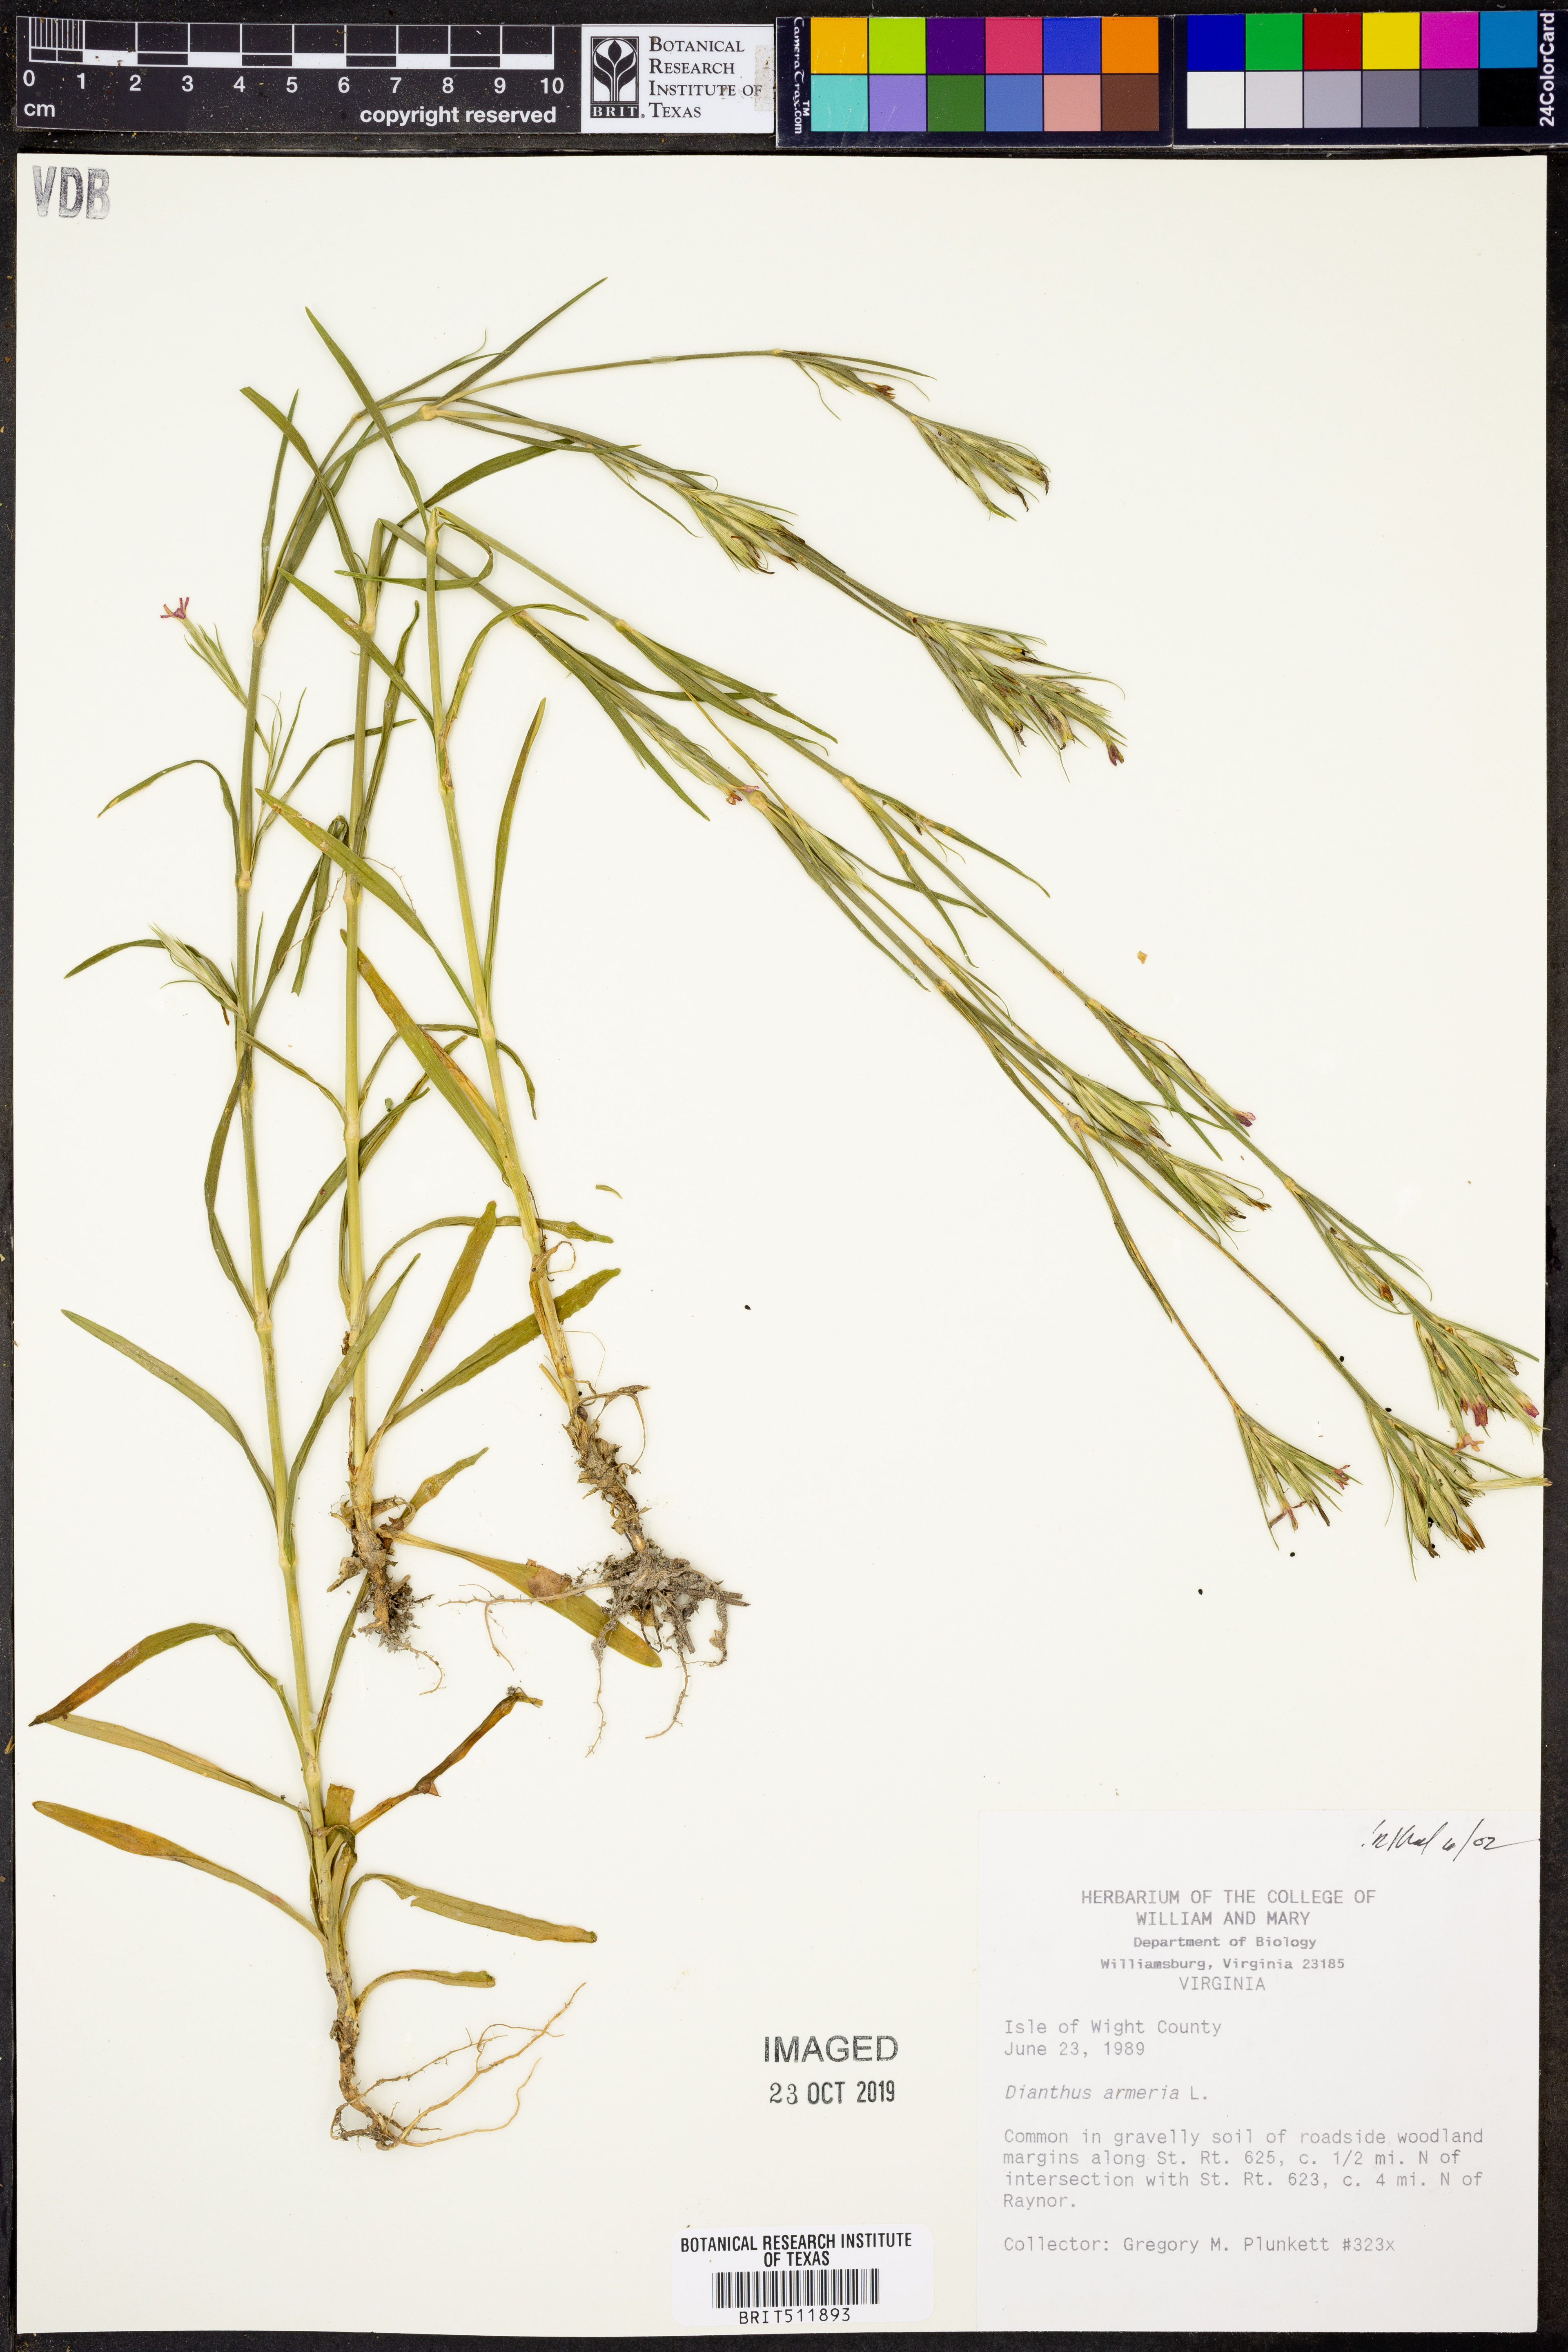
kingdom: Plantae
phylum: Tracheophyta
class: Magnoliopsida
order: Caryophyllales
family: Caryophyllaceae
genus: Dianthus
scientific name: Dianthus armeria
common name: Deptford pink
